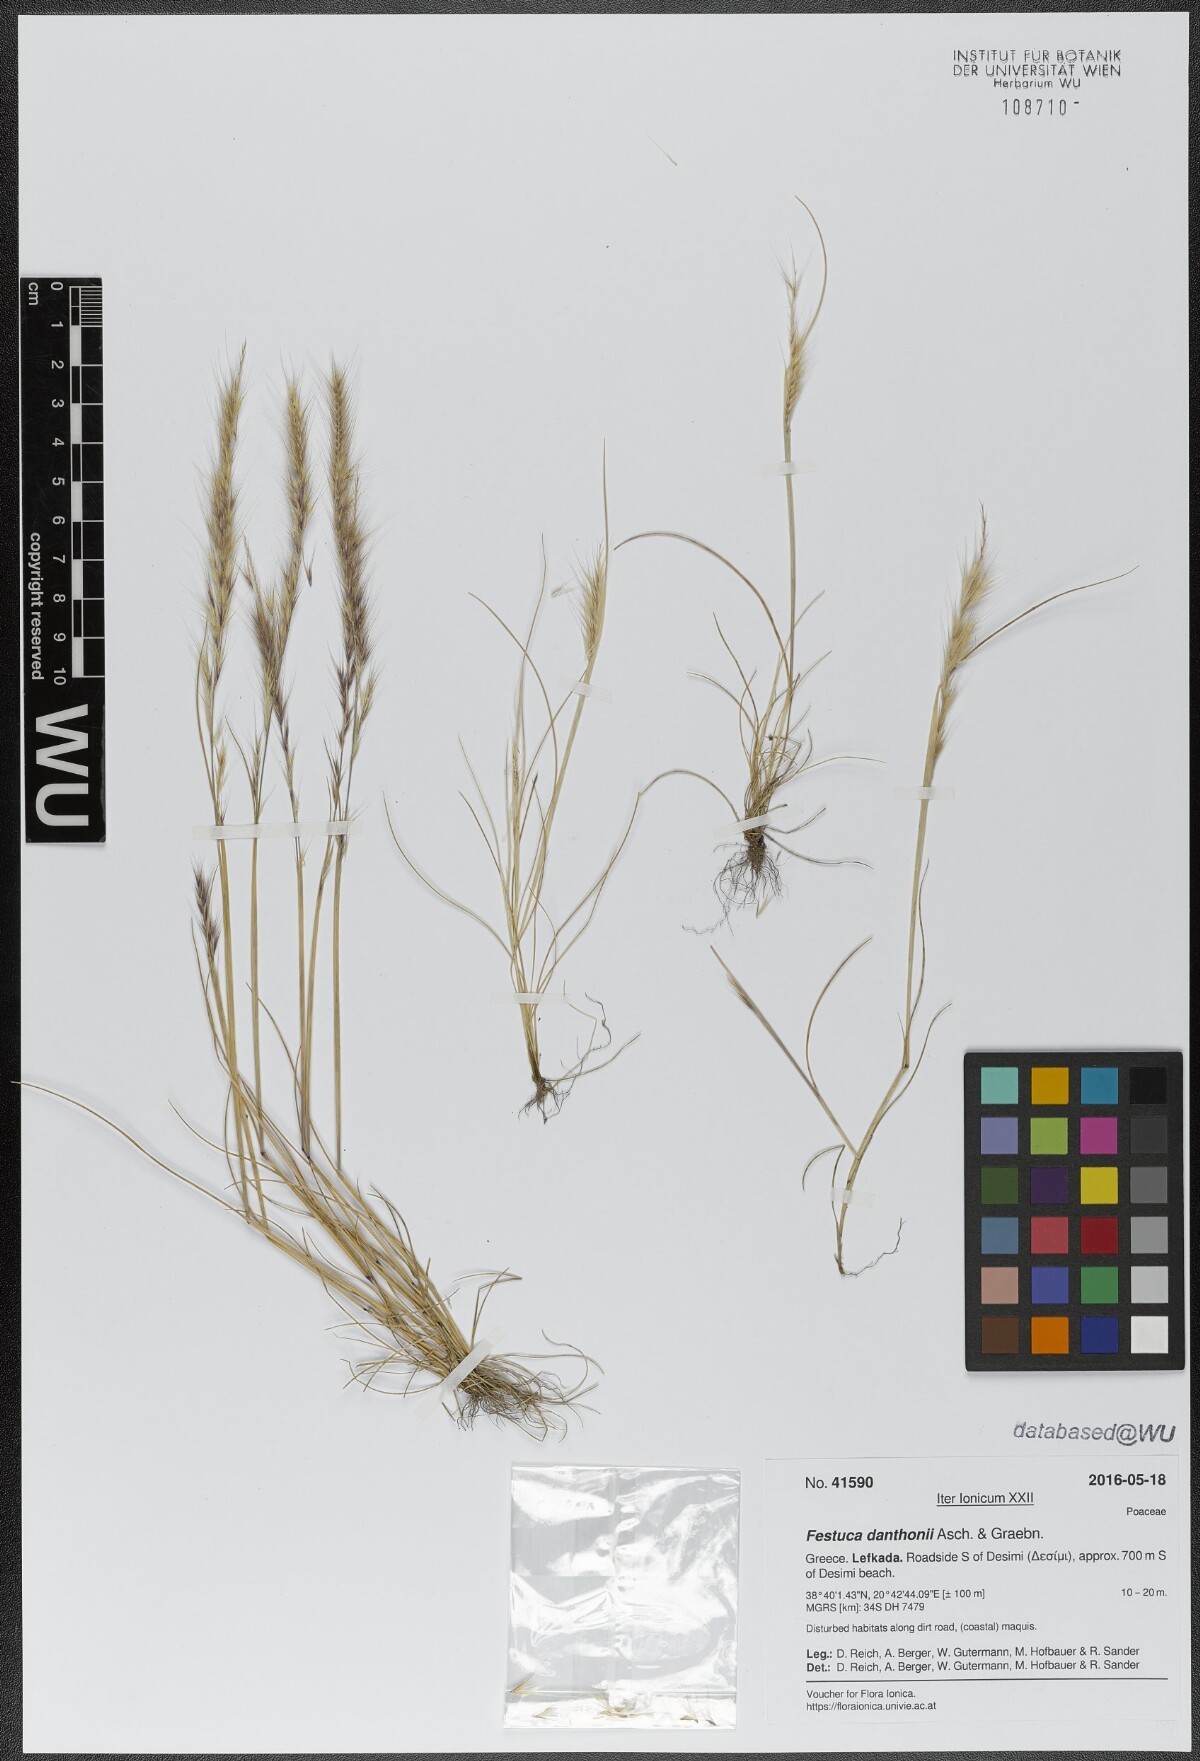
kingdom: Plantae
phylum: Tracheophyta
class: Liliopsida
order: Poales
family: Poaceae
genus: Festuca
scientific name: Festuca ambigua
